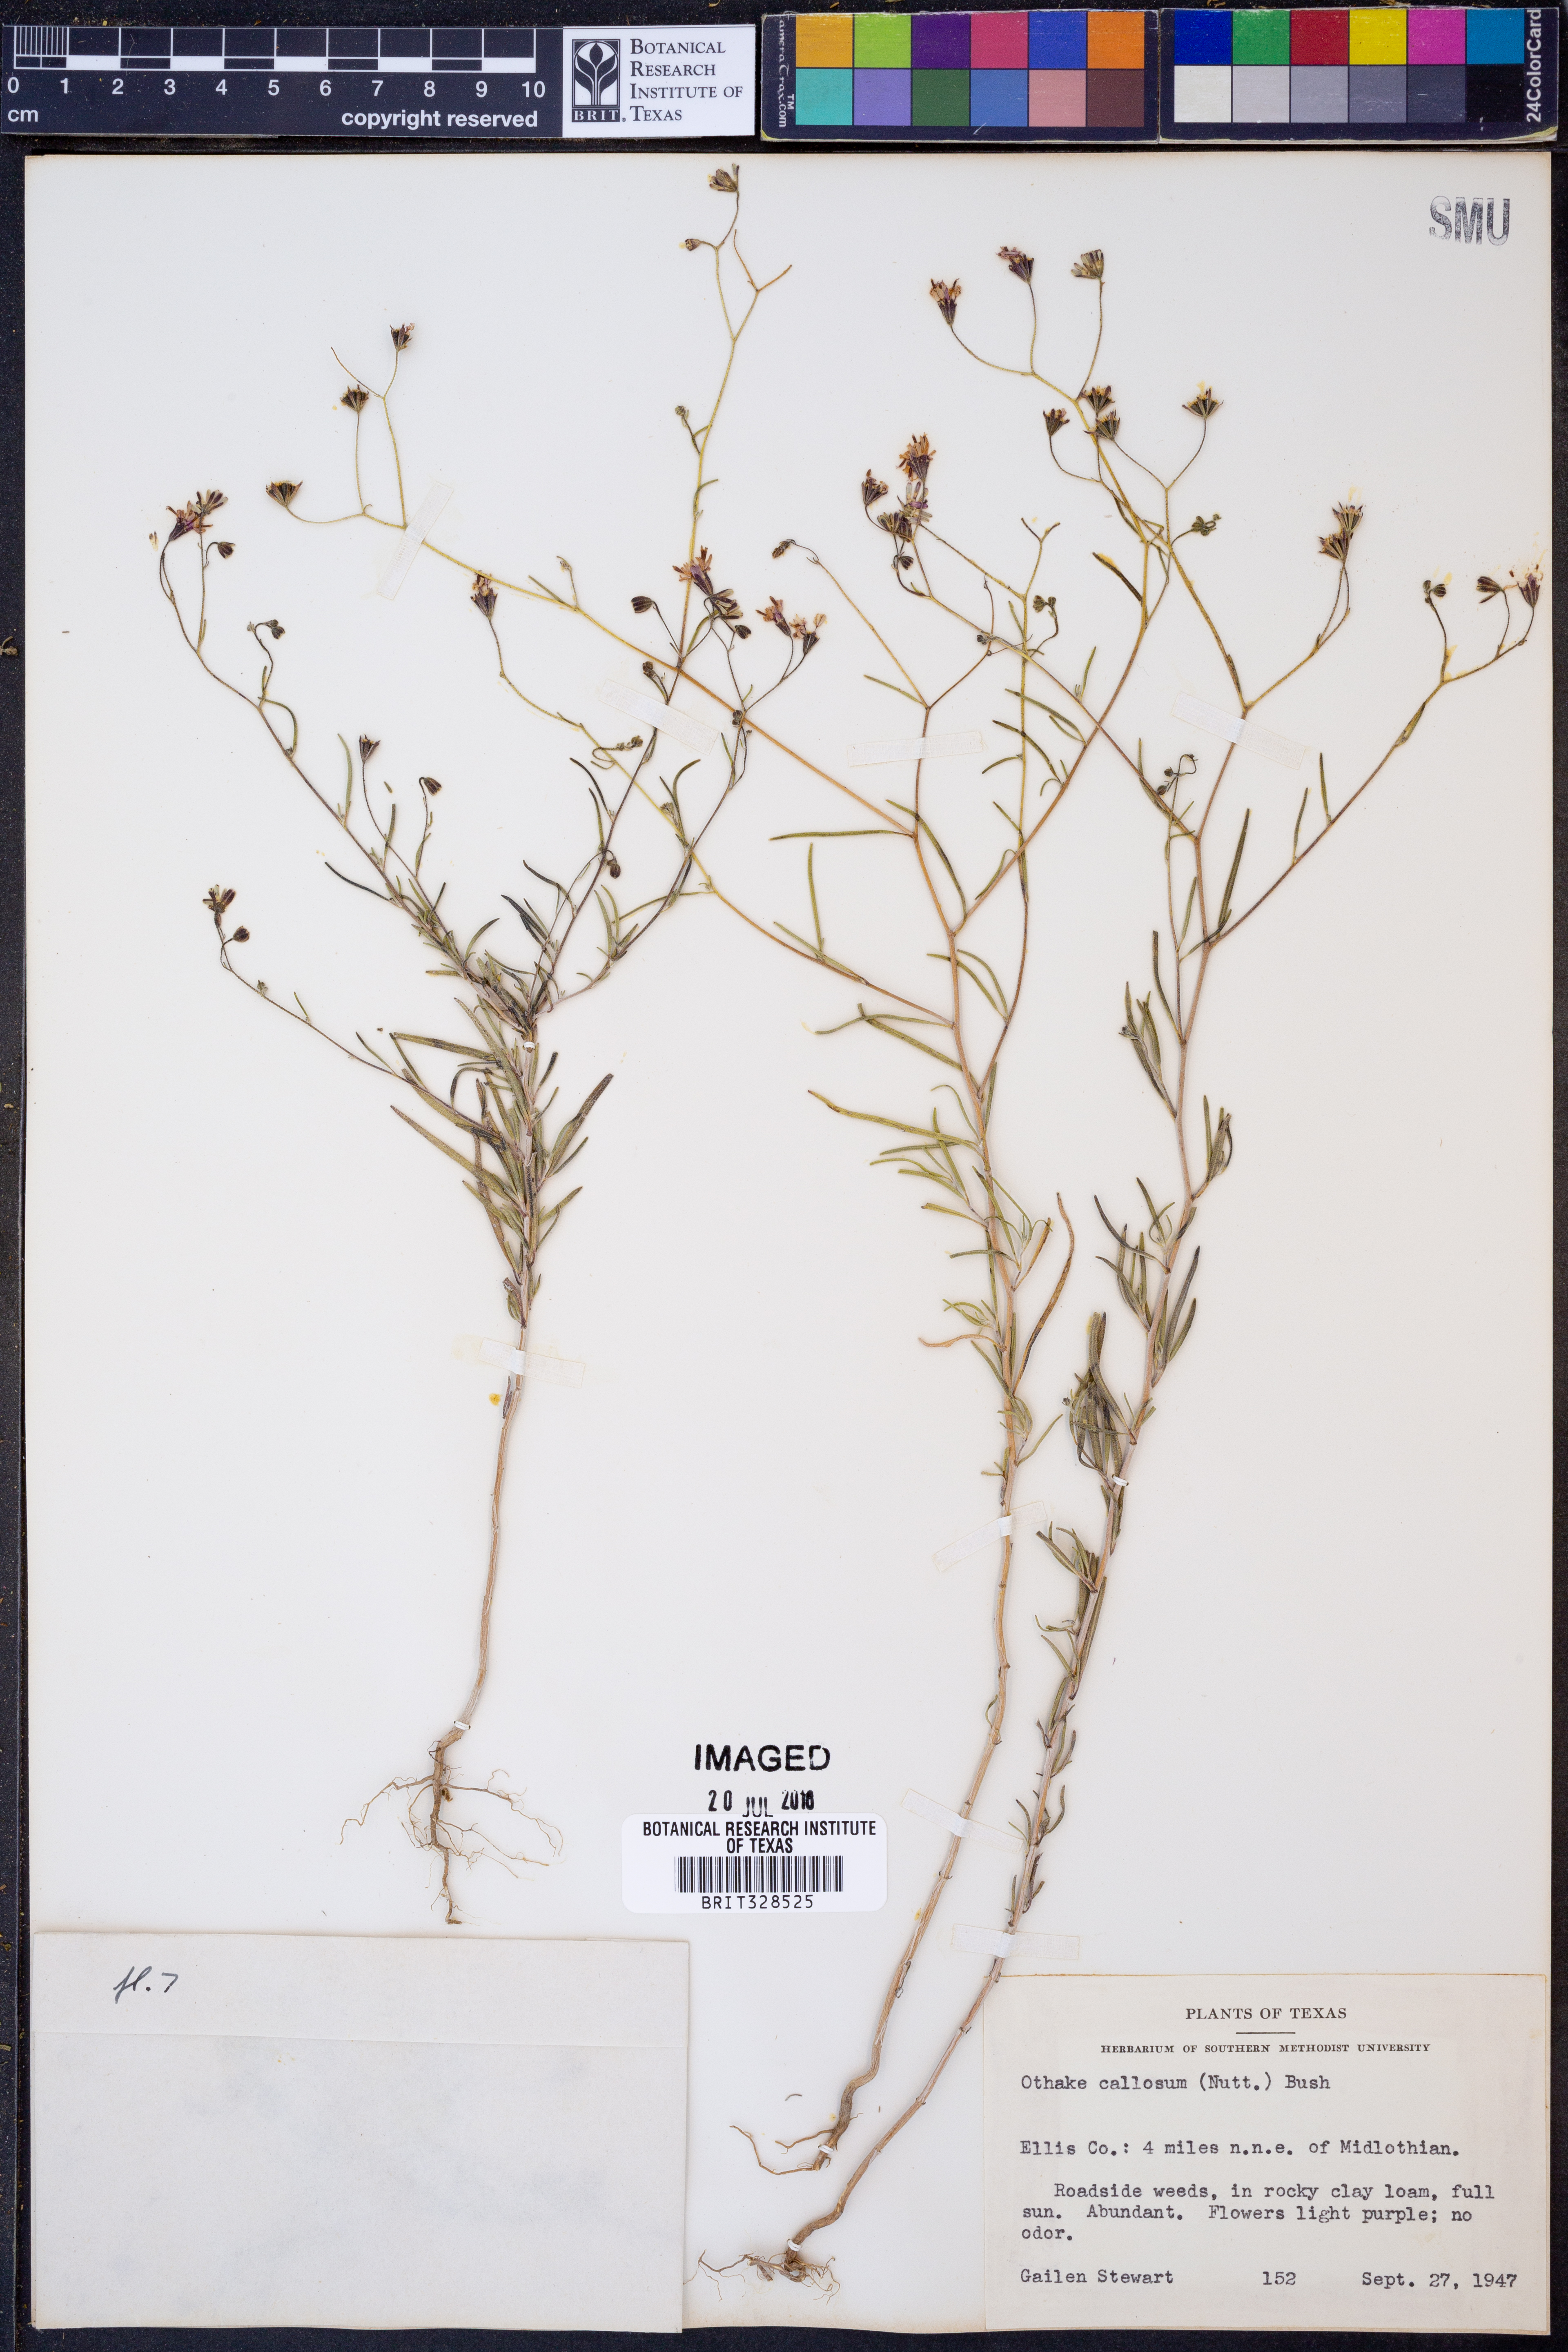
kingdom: Plantae
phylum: Tracheophyta
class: Magnoliopsida
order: Asterales
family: Asteraceae
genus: Palafoxia
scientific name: Palafoxia callosa
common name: Small palafox
